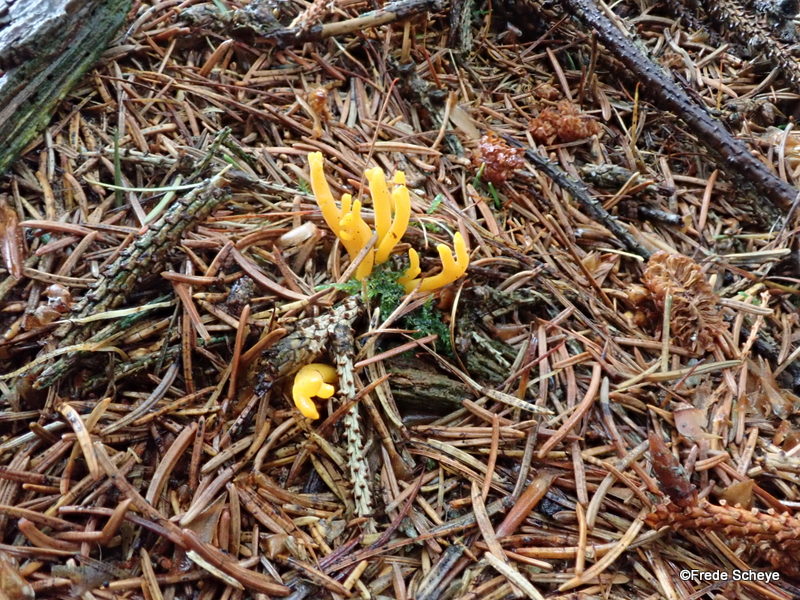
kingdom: Fungi
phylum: Basidiomycota
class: Dacrymycetes
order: Dacrymycetales
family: Dacrymycetaceae
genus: Calocera
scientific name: Calocera viscosa
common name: almindelig guldgaffel
